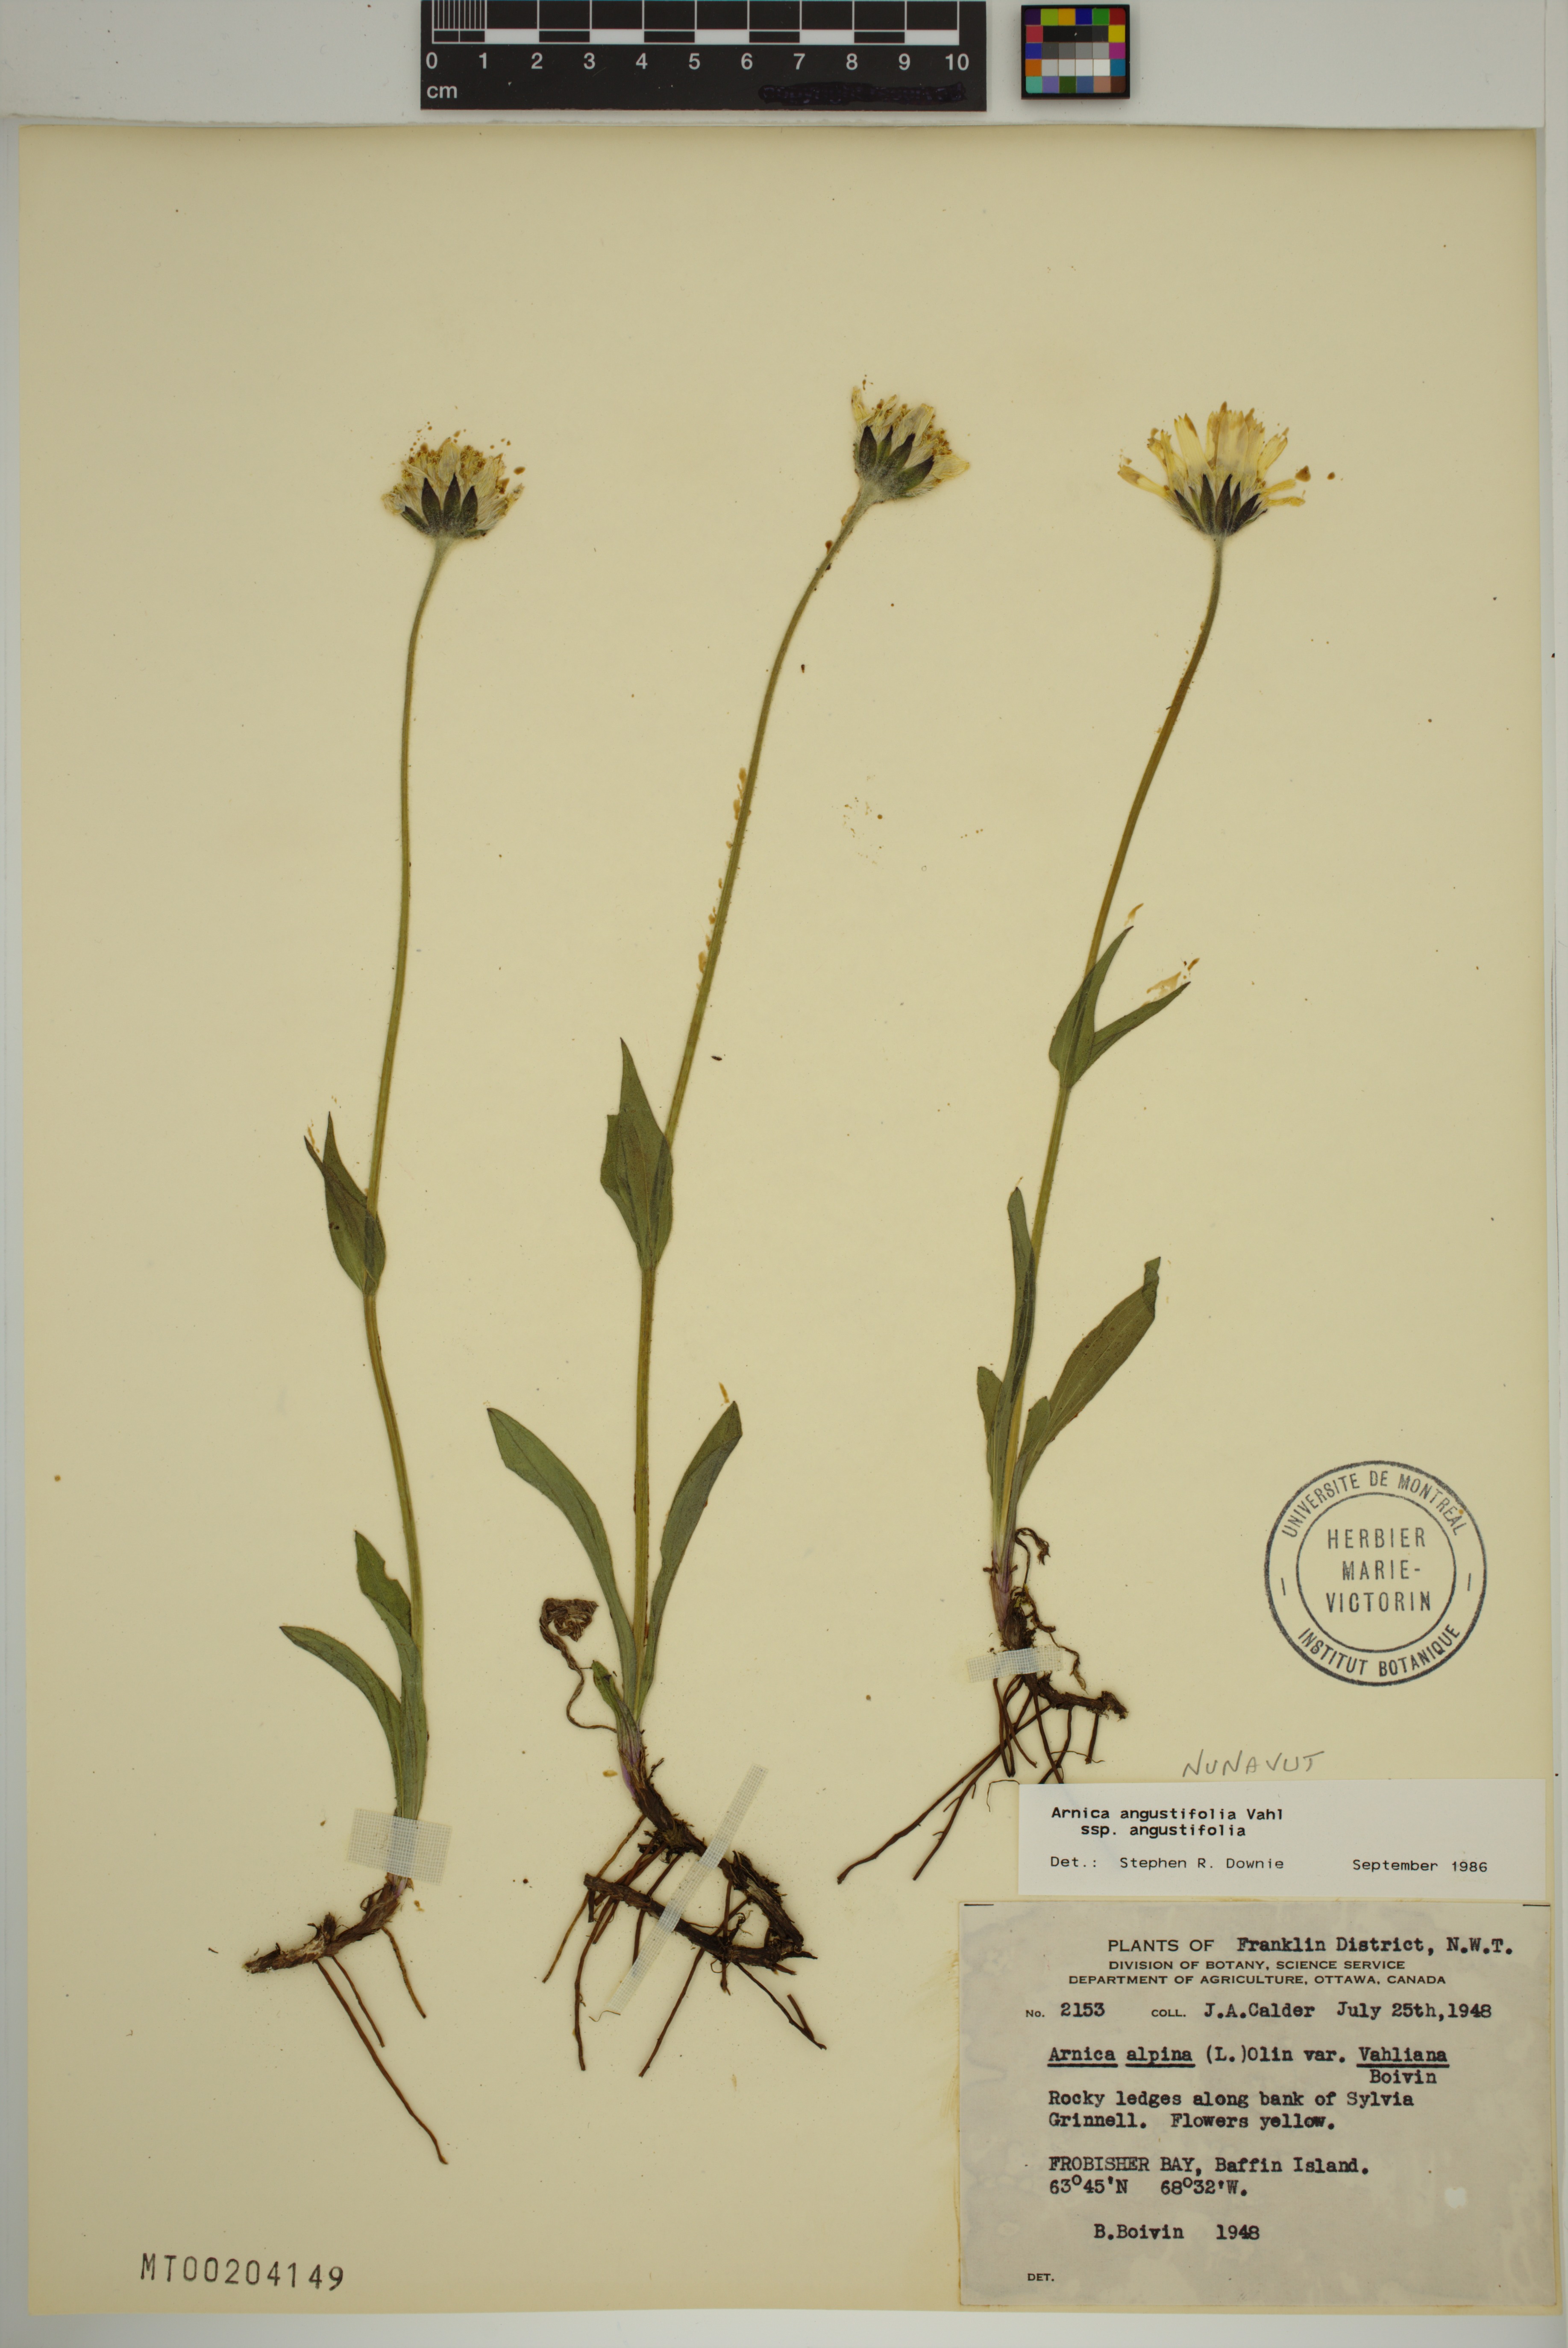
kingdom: Plantae
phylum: Tracheophyta
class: Magnoliopsida
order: Asterales
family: Asteraceae
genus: Arnica
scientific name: Arnica angustifolia
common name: Arctic arnica
